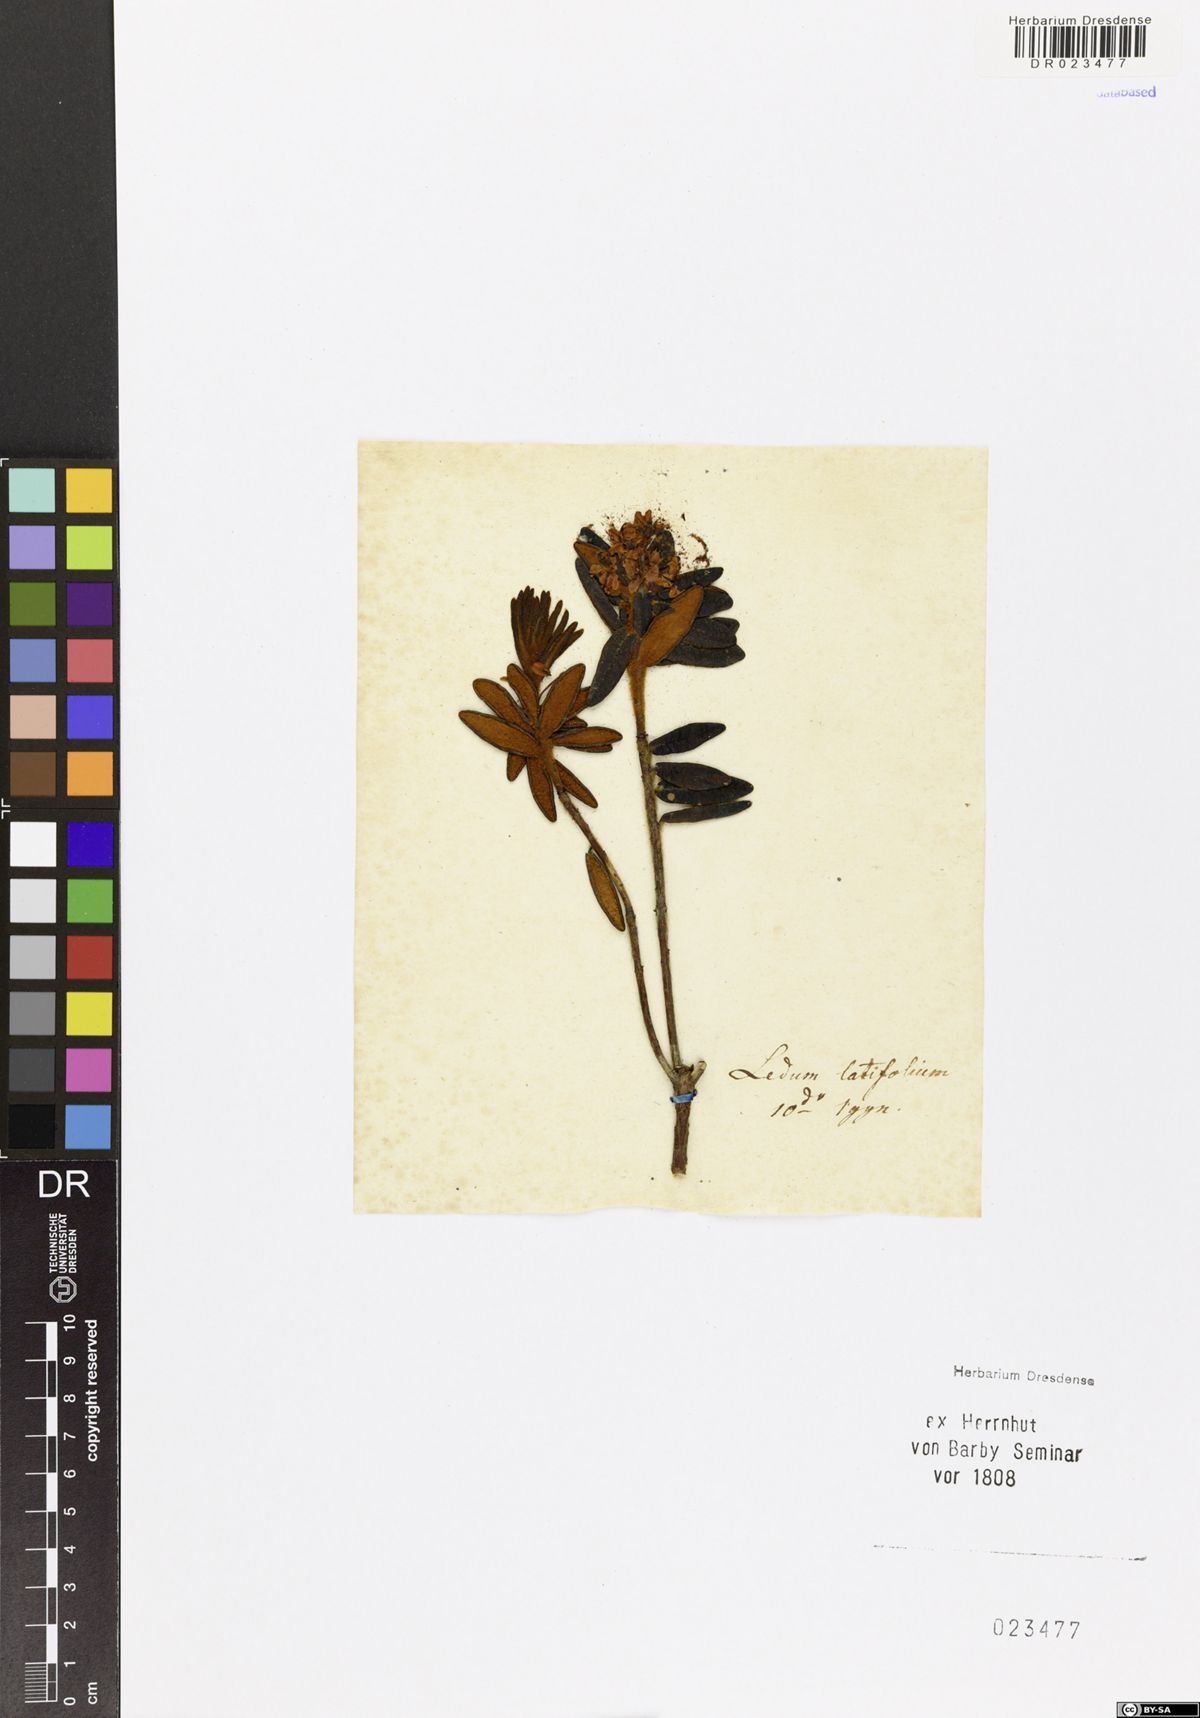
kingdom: Plantae
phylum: Tracheophyta
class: Magnoliopsida
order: Ericales
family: Ericaceae
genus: Rhododendron
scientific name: Rhododendron groenlandicum
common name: Bog labrador tea
